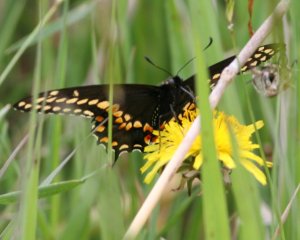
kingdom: Animalia
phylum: Arthropoda
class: Insecta
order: Lepidoptera
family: Papilionidae
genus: Papilio
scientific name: Papilio polyxenes
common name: Black Swallowtail
